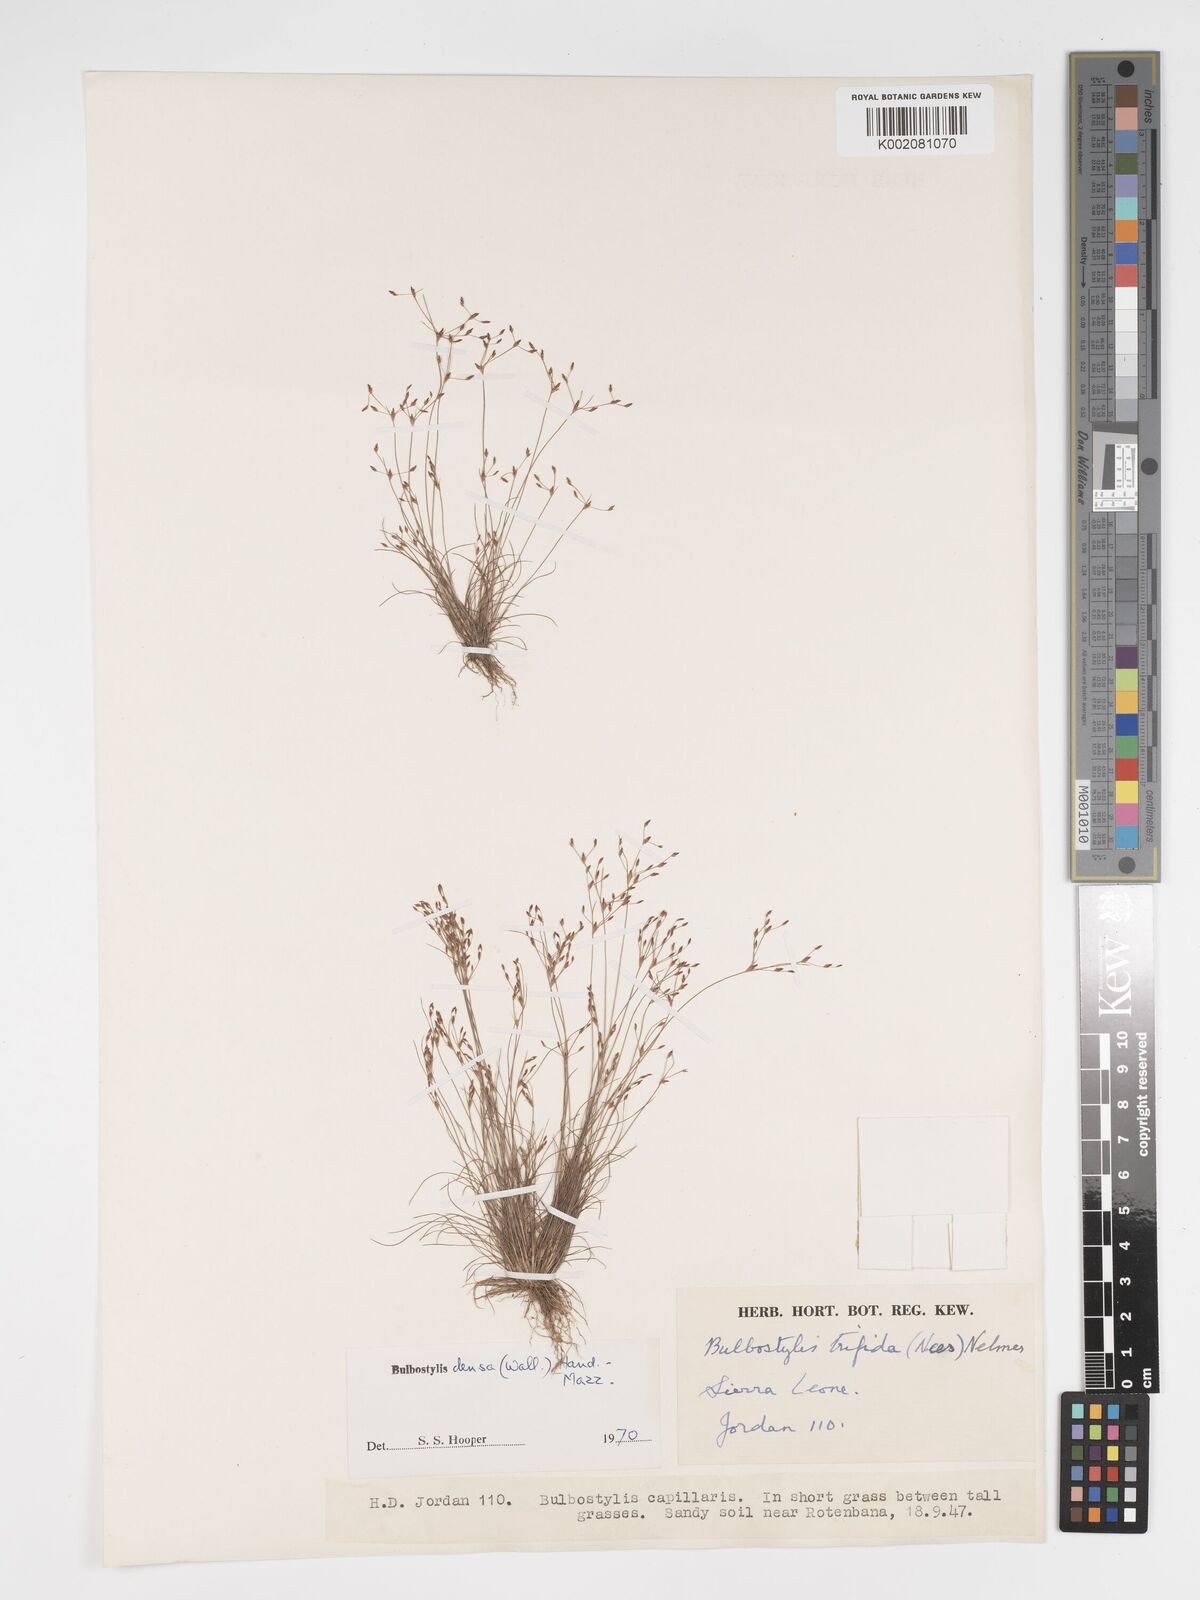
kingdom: Plantae
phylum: Tracheophyta
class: Liliopsida
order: Poales
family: Cyperaceae
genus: Bulbostylis
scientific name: Bulbostylis densa
